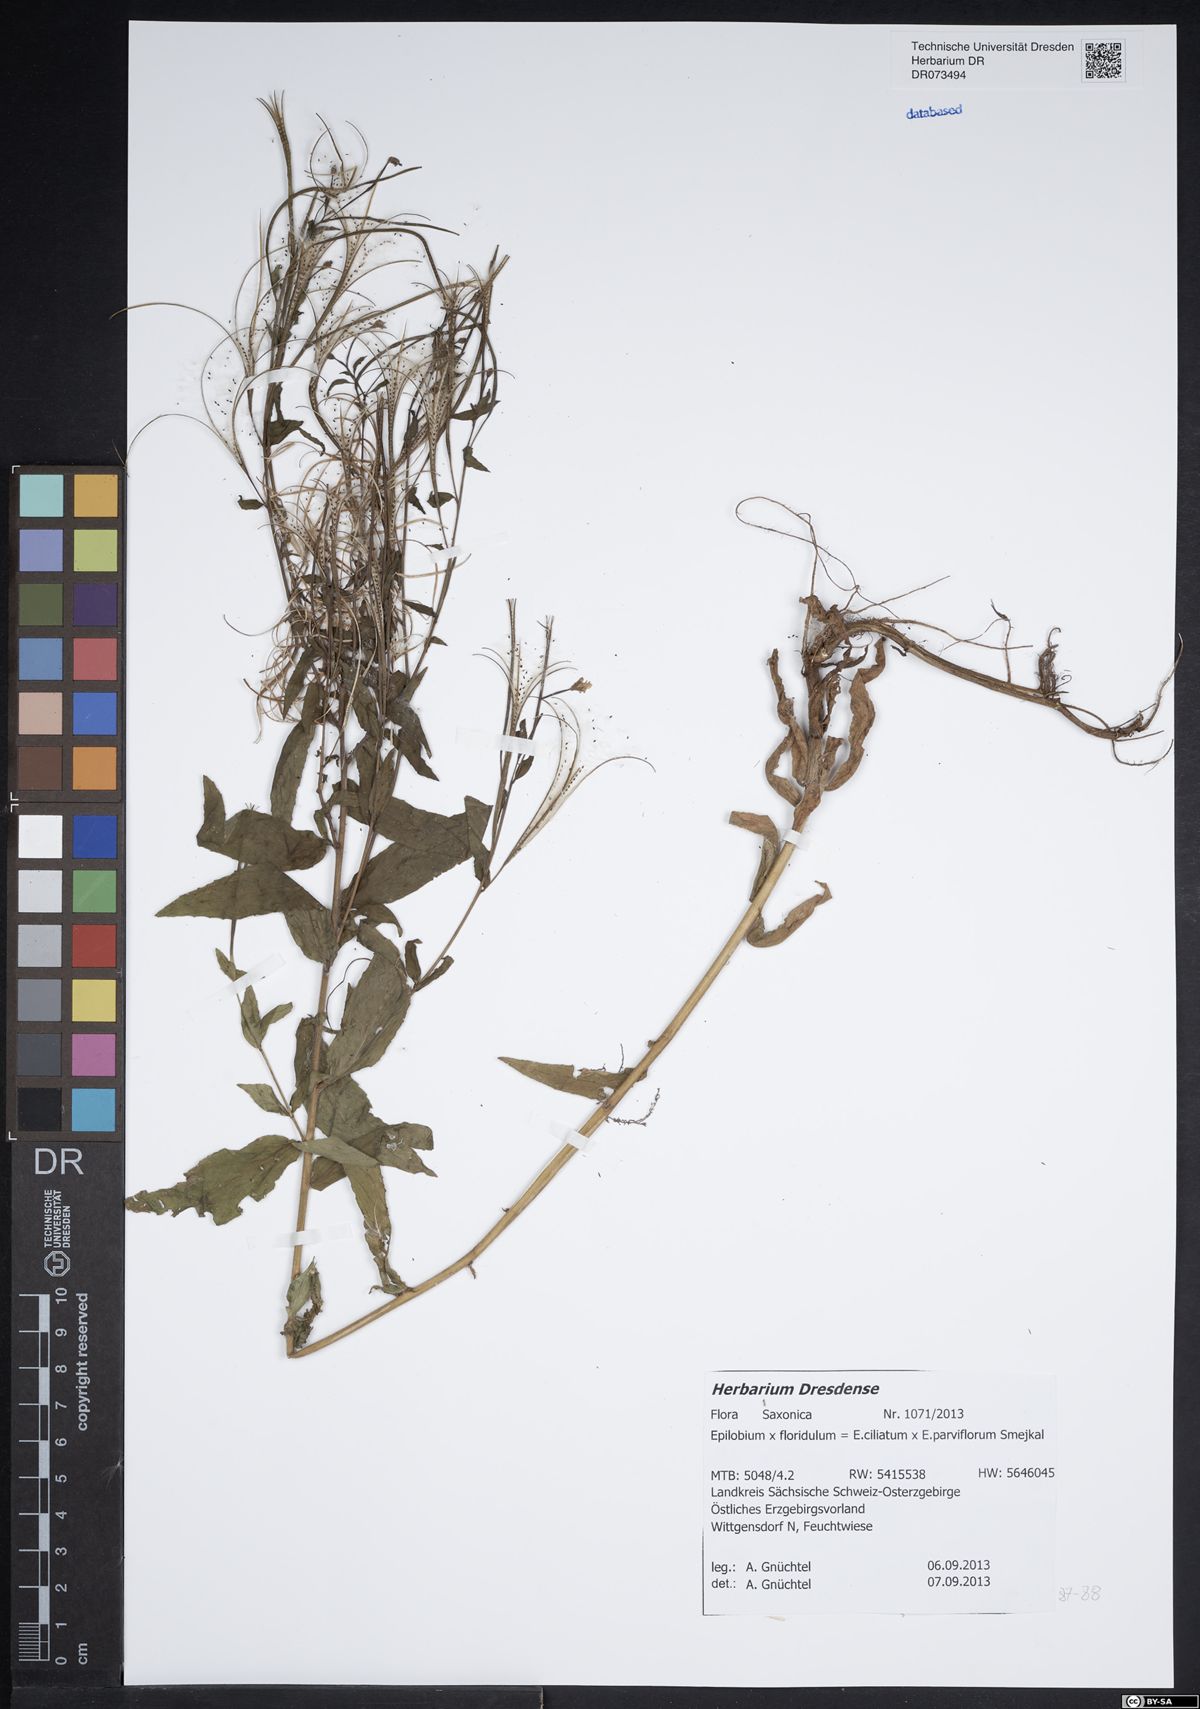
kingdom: Plantae
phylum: Tracheophyta
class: Magnoliopsida
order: Myrtales
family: Onagraceae
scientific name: Onagraceae
